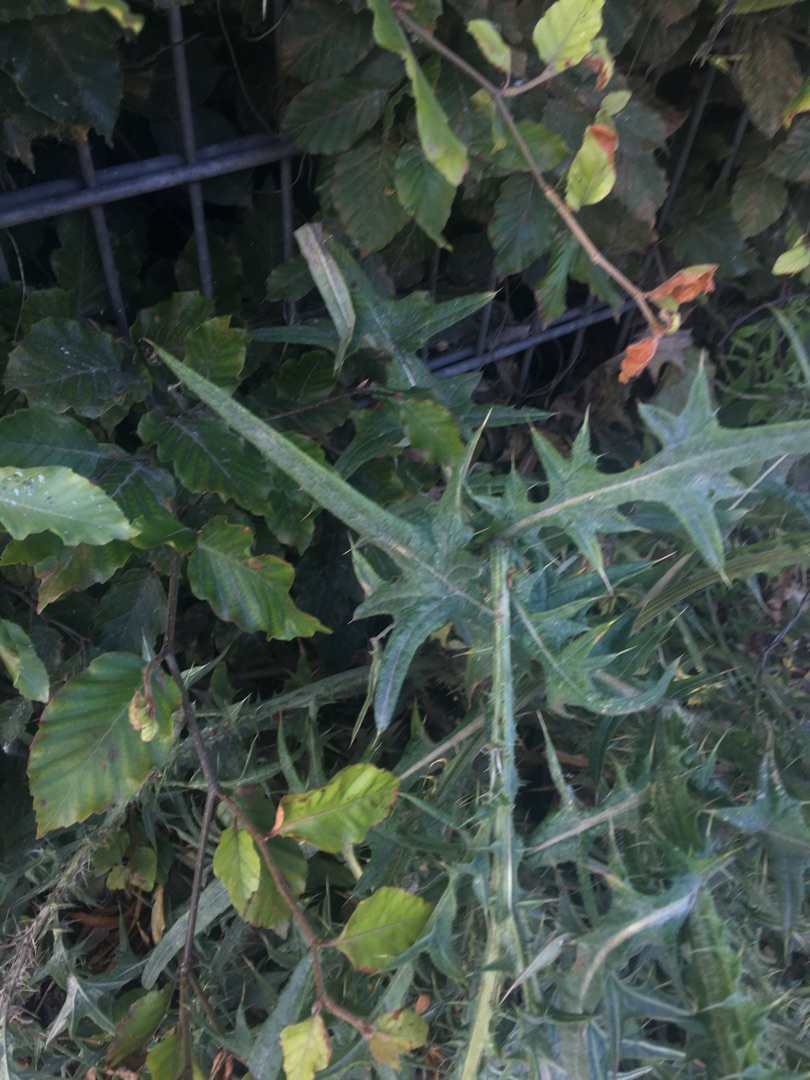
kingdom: Plantae
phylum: Tracheophyta
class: Magnoliopsida
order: Asterales
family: Asteraceae
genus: Cirsium
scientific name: Cirsium vulgare
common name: Horse-tidsel
